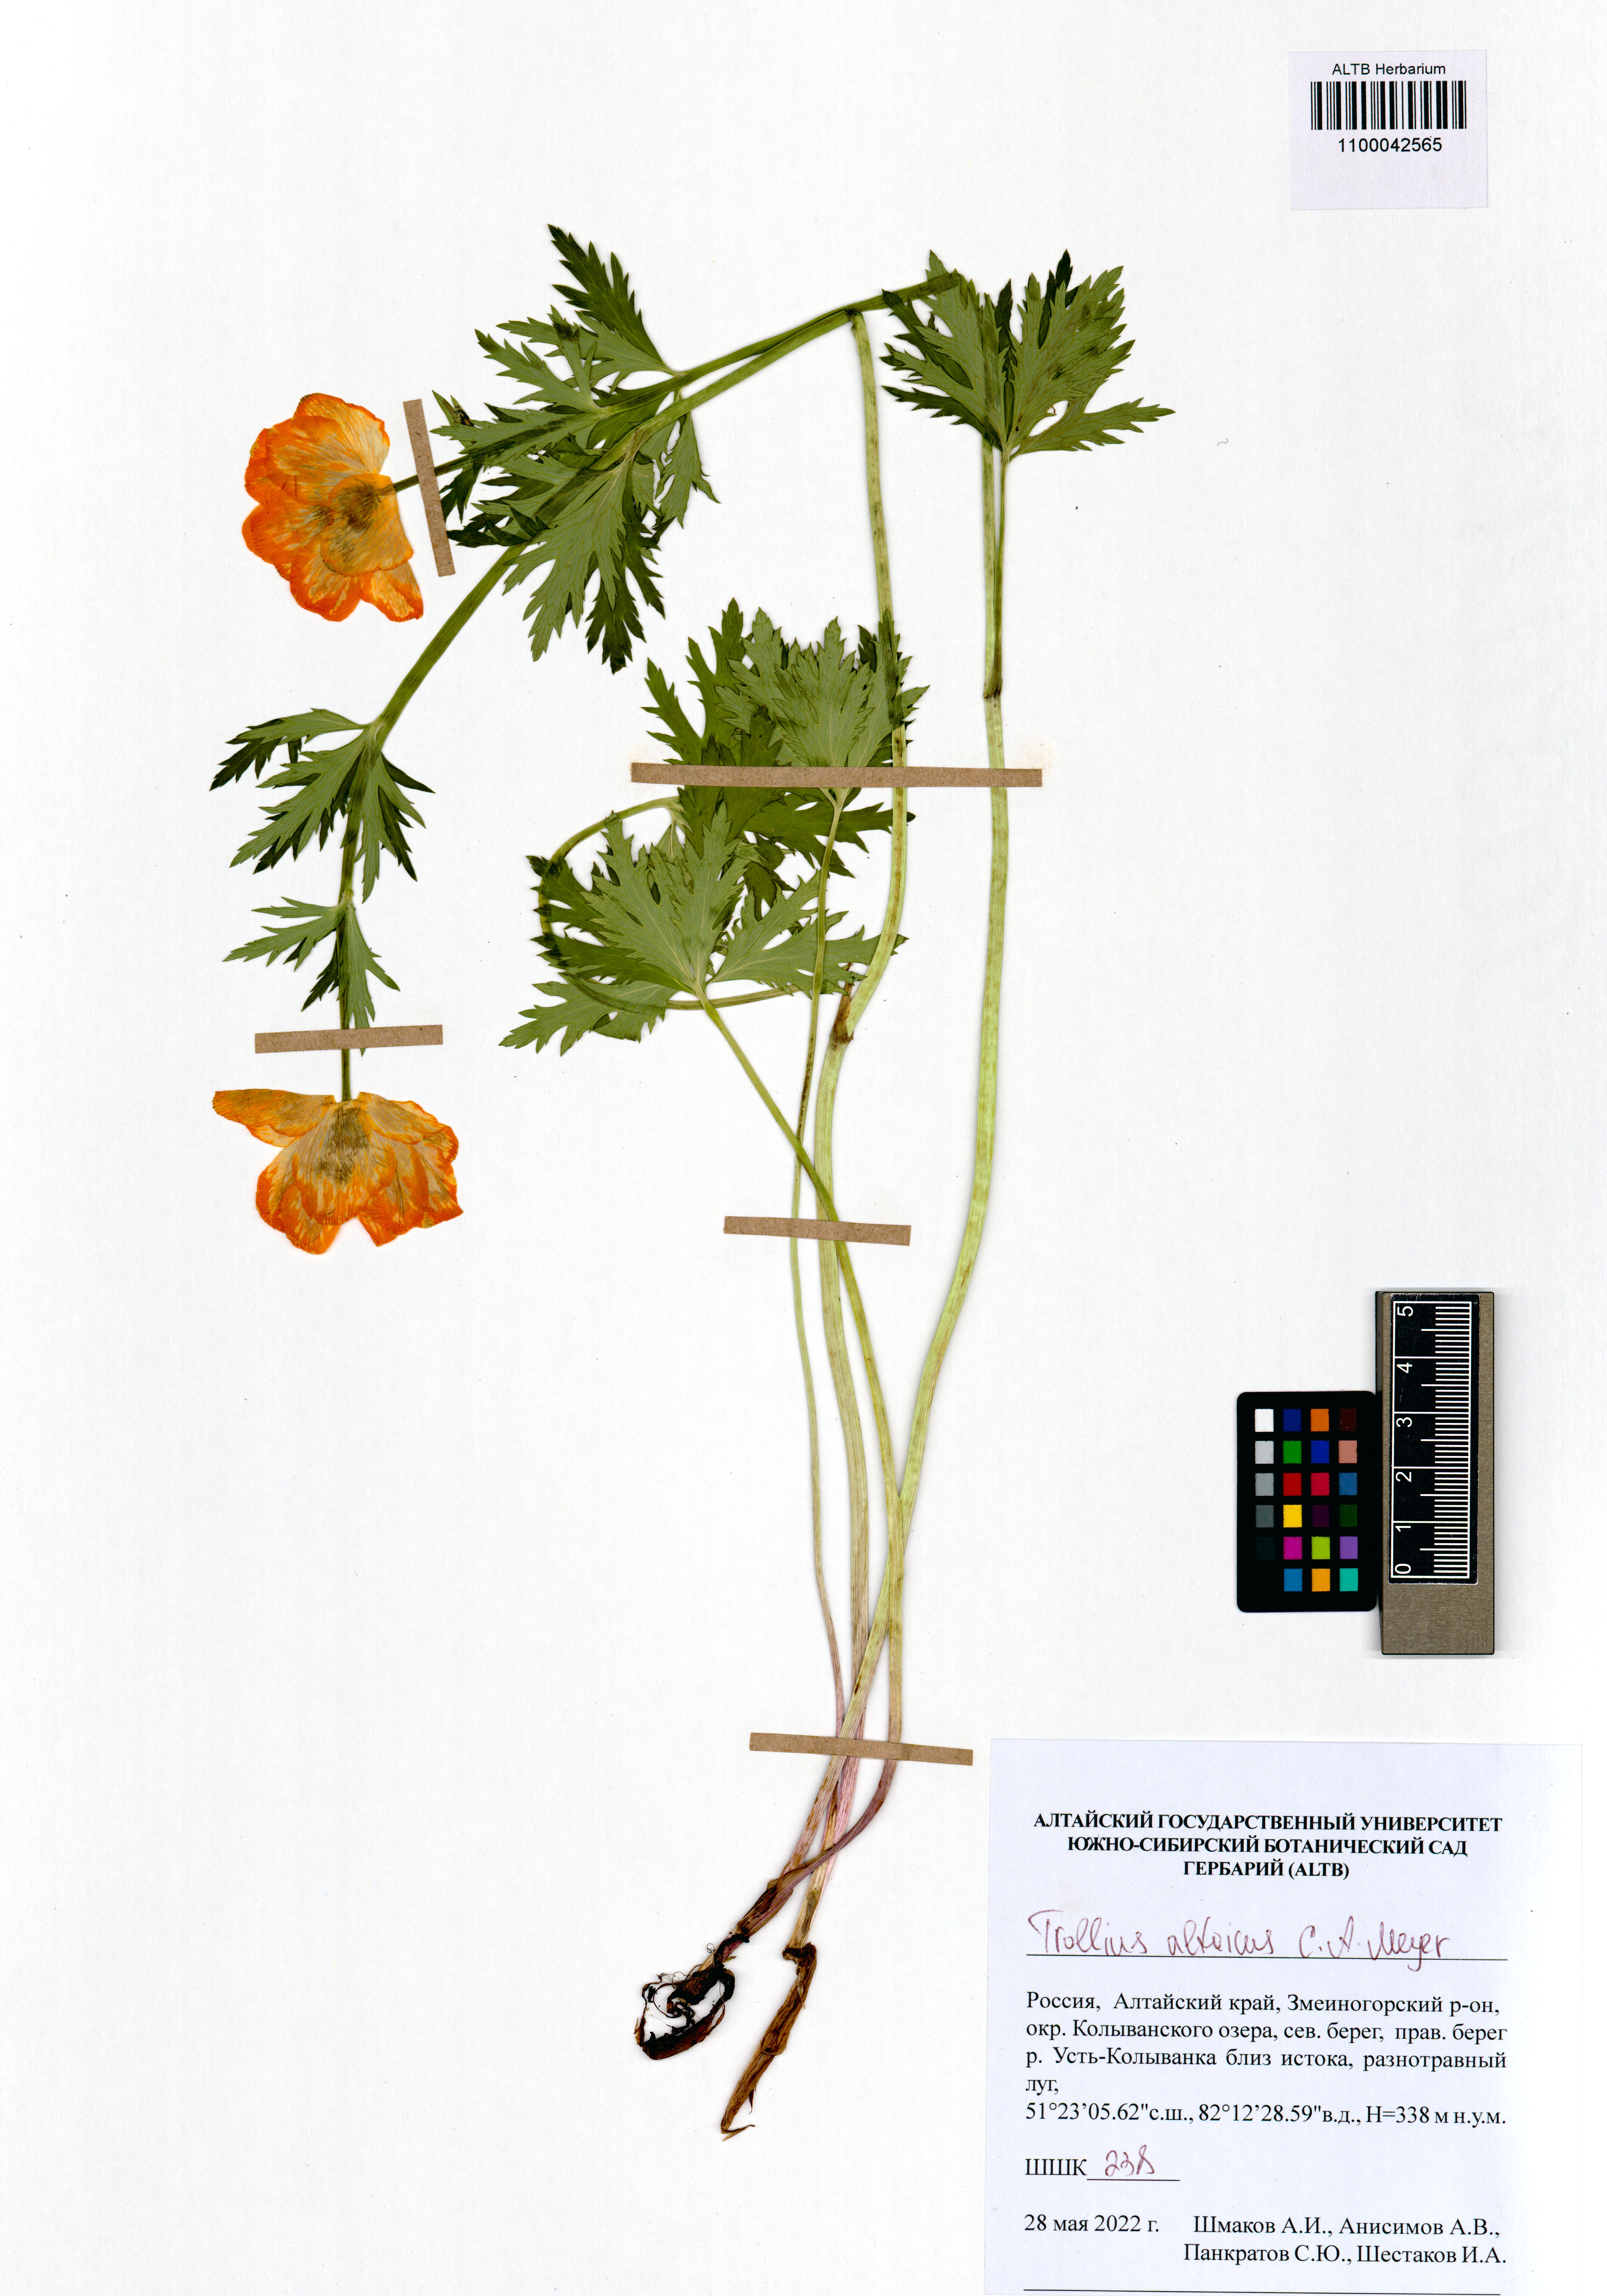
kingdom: Plantae
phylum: Tracheophyta
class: Magnoliopsida
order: Ranunculales
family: Ranunculaceae
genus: Trollius
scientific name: Trollius altaicus
